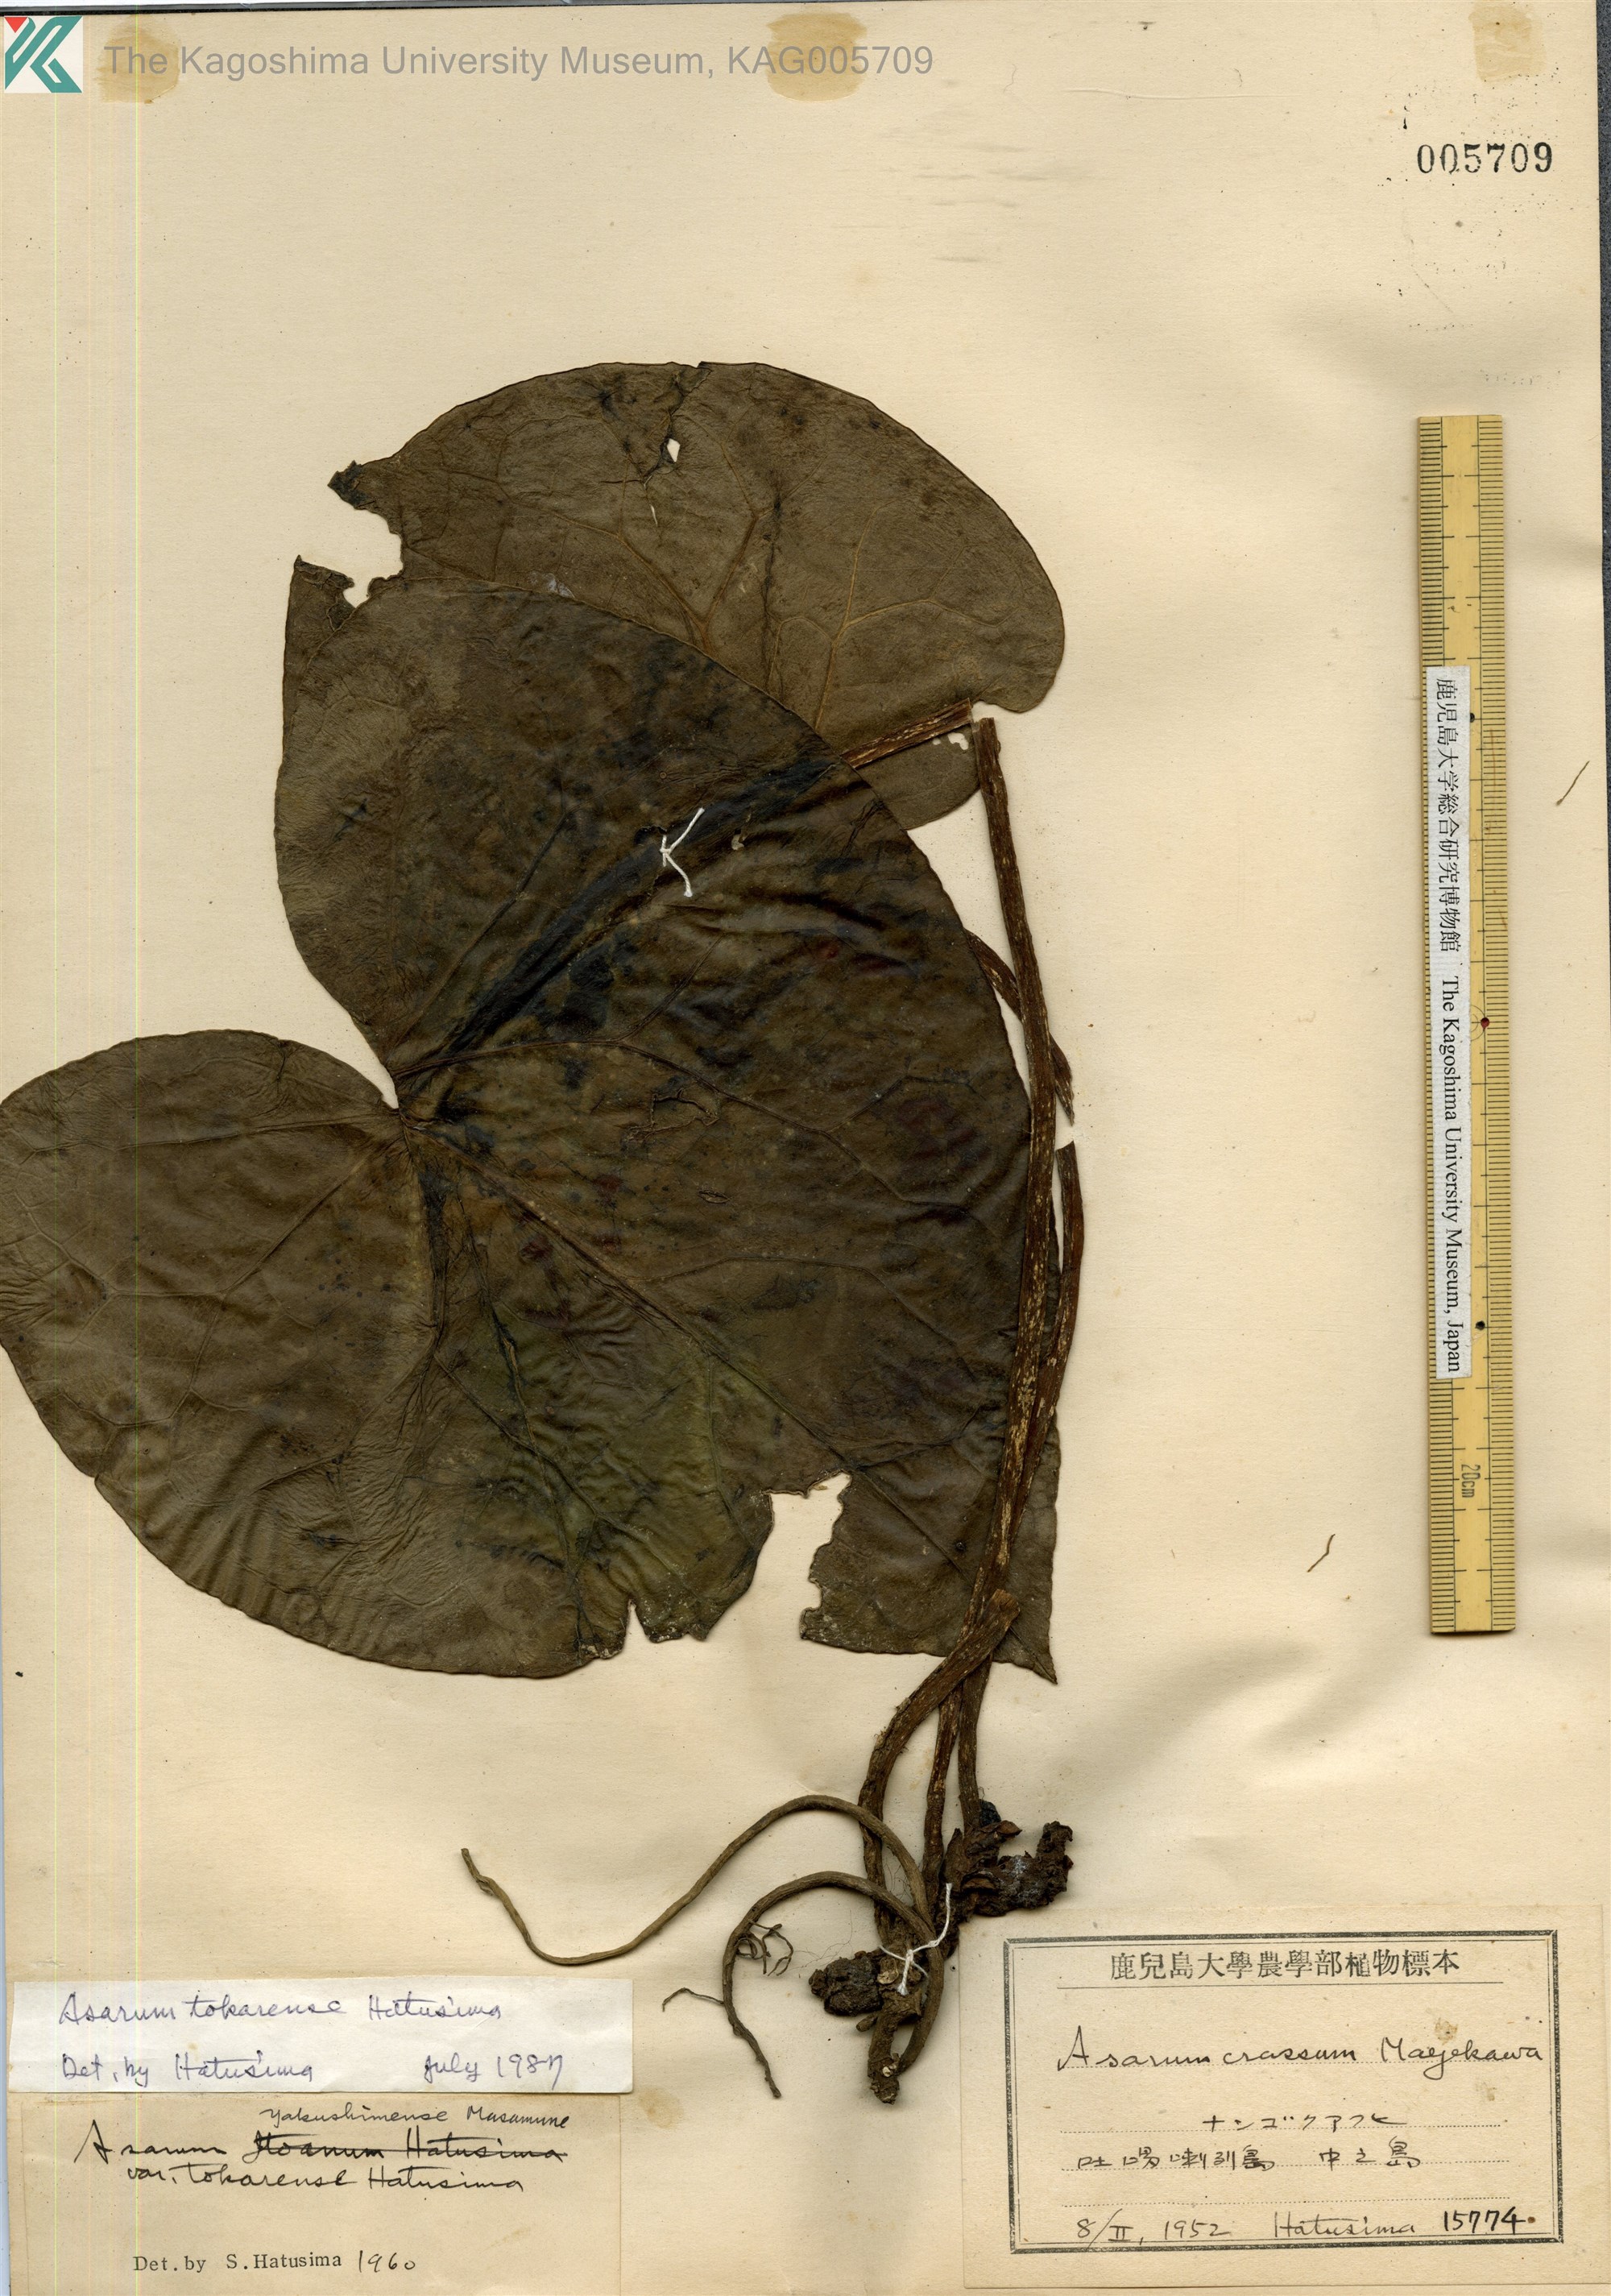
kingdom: Plantae
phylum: Tracheophyta
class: Magnoliopsida
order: Piperales
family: Aristolochiaceae
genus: Asarum
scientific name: Asarum tokarense
